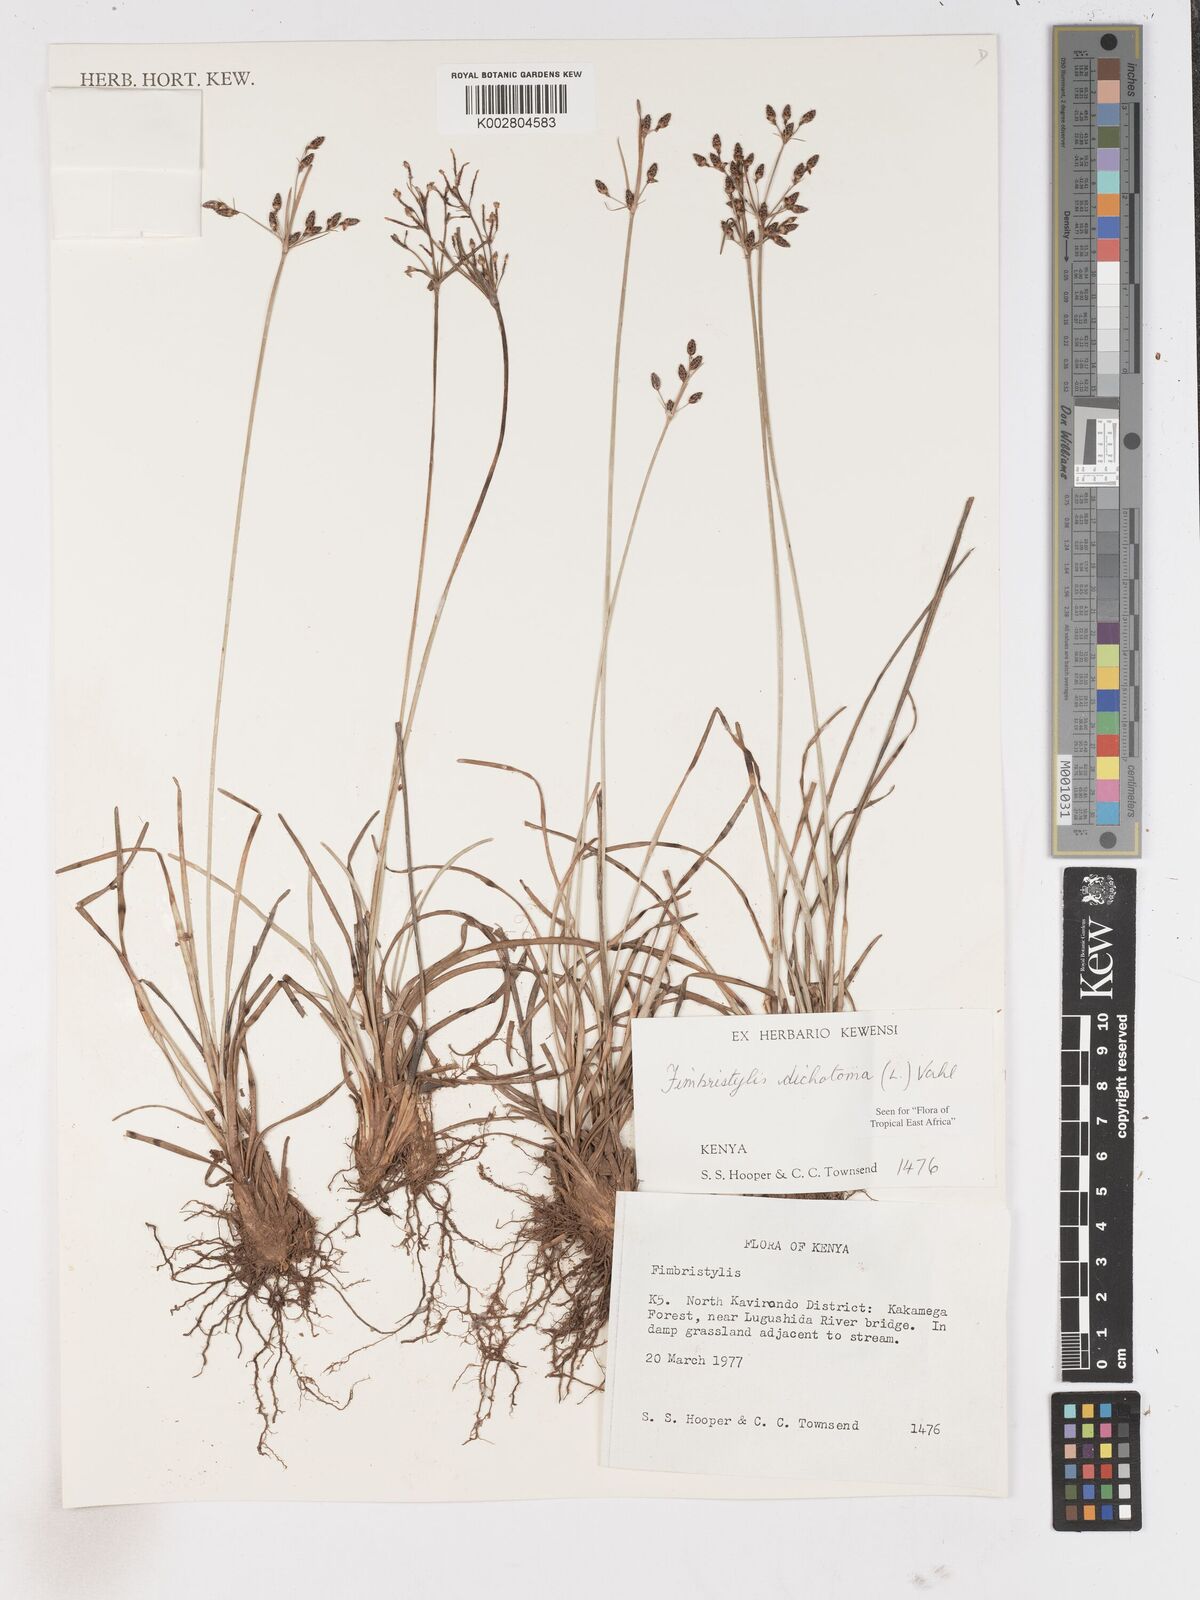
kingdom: Plantae
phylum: Tracheophyta
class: Liliopsida
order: Poales
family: Cyperaceae
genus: Fimbristylis
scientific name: Fimbristylis dichotoma
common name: Forked fimbry
